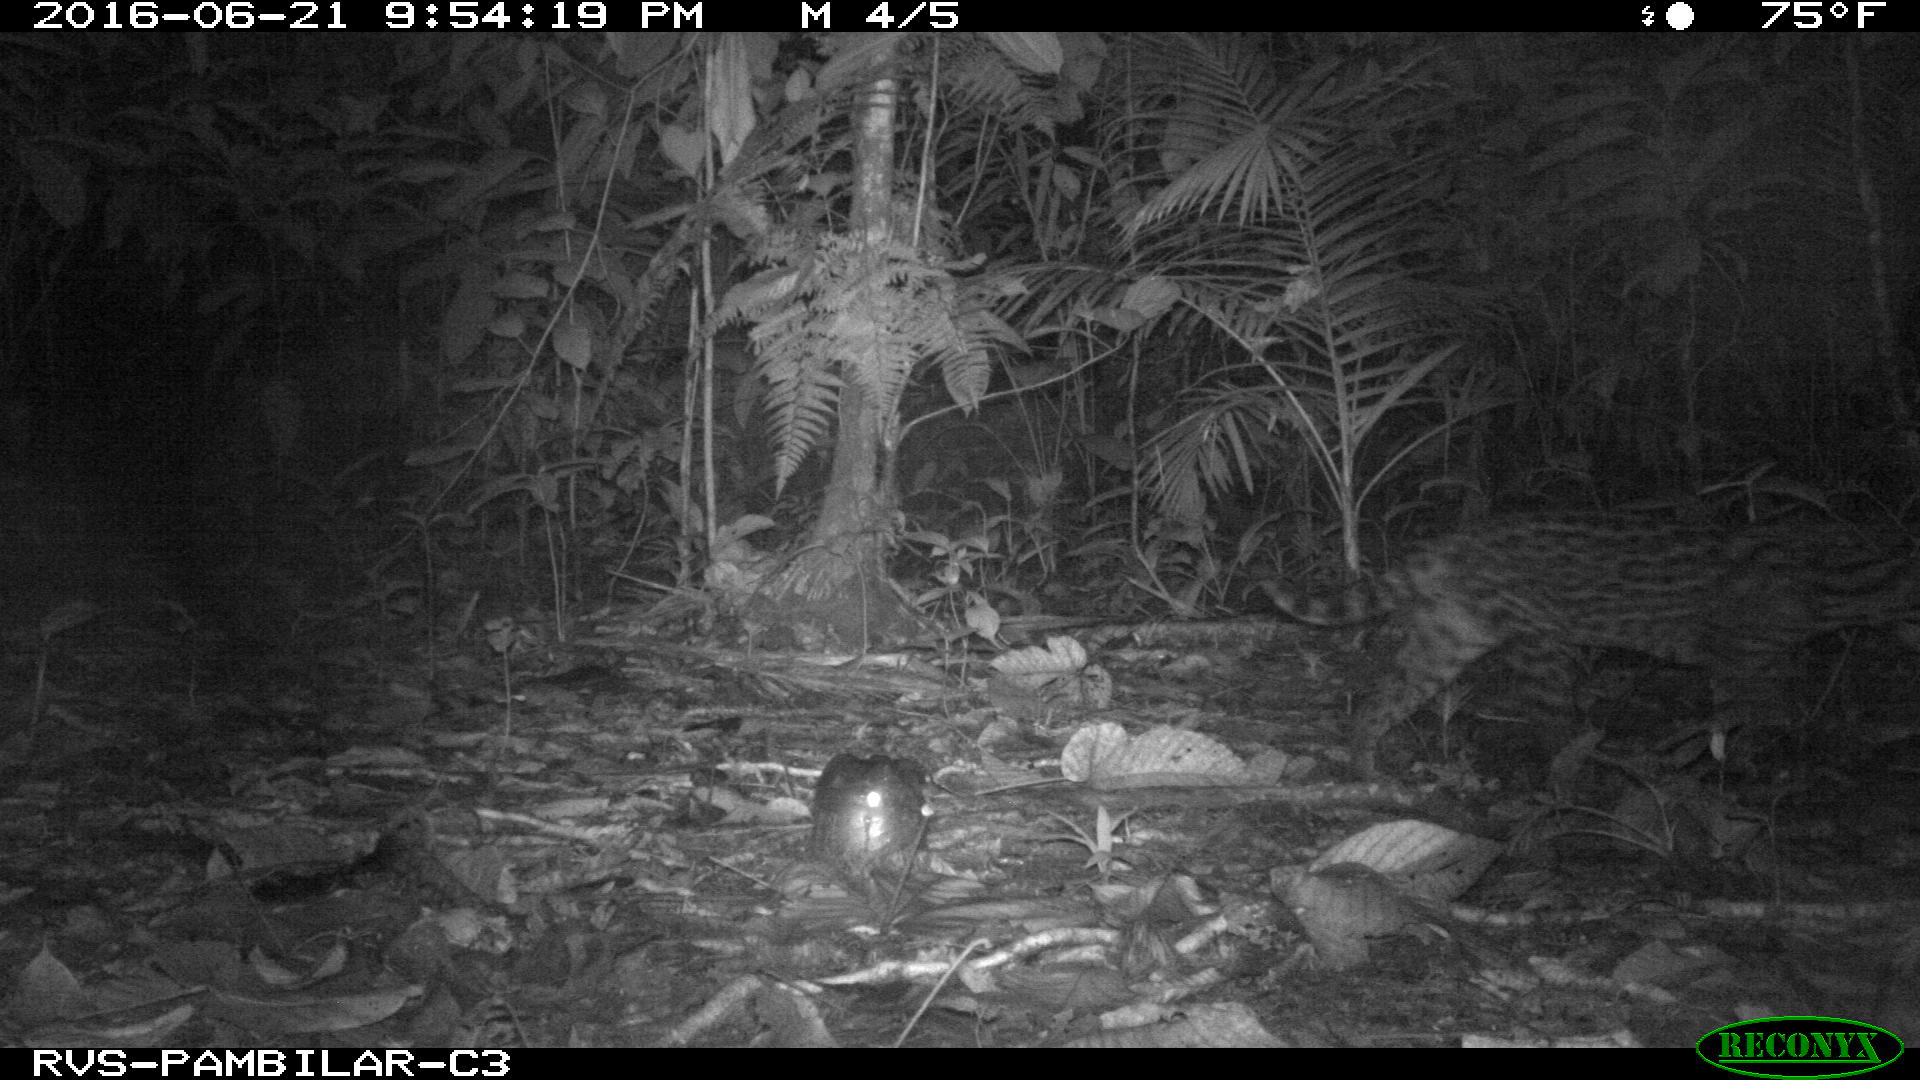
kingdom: Animalia
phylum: Chordata
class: Mammalia
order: Carnivora
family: Felidae
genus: Leopardus
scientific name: Leopardus pardalis
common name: Ocelot
